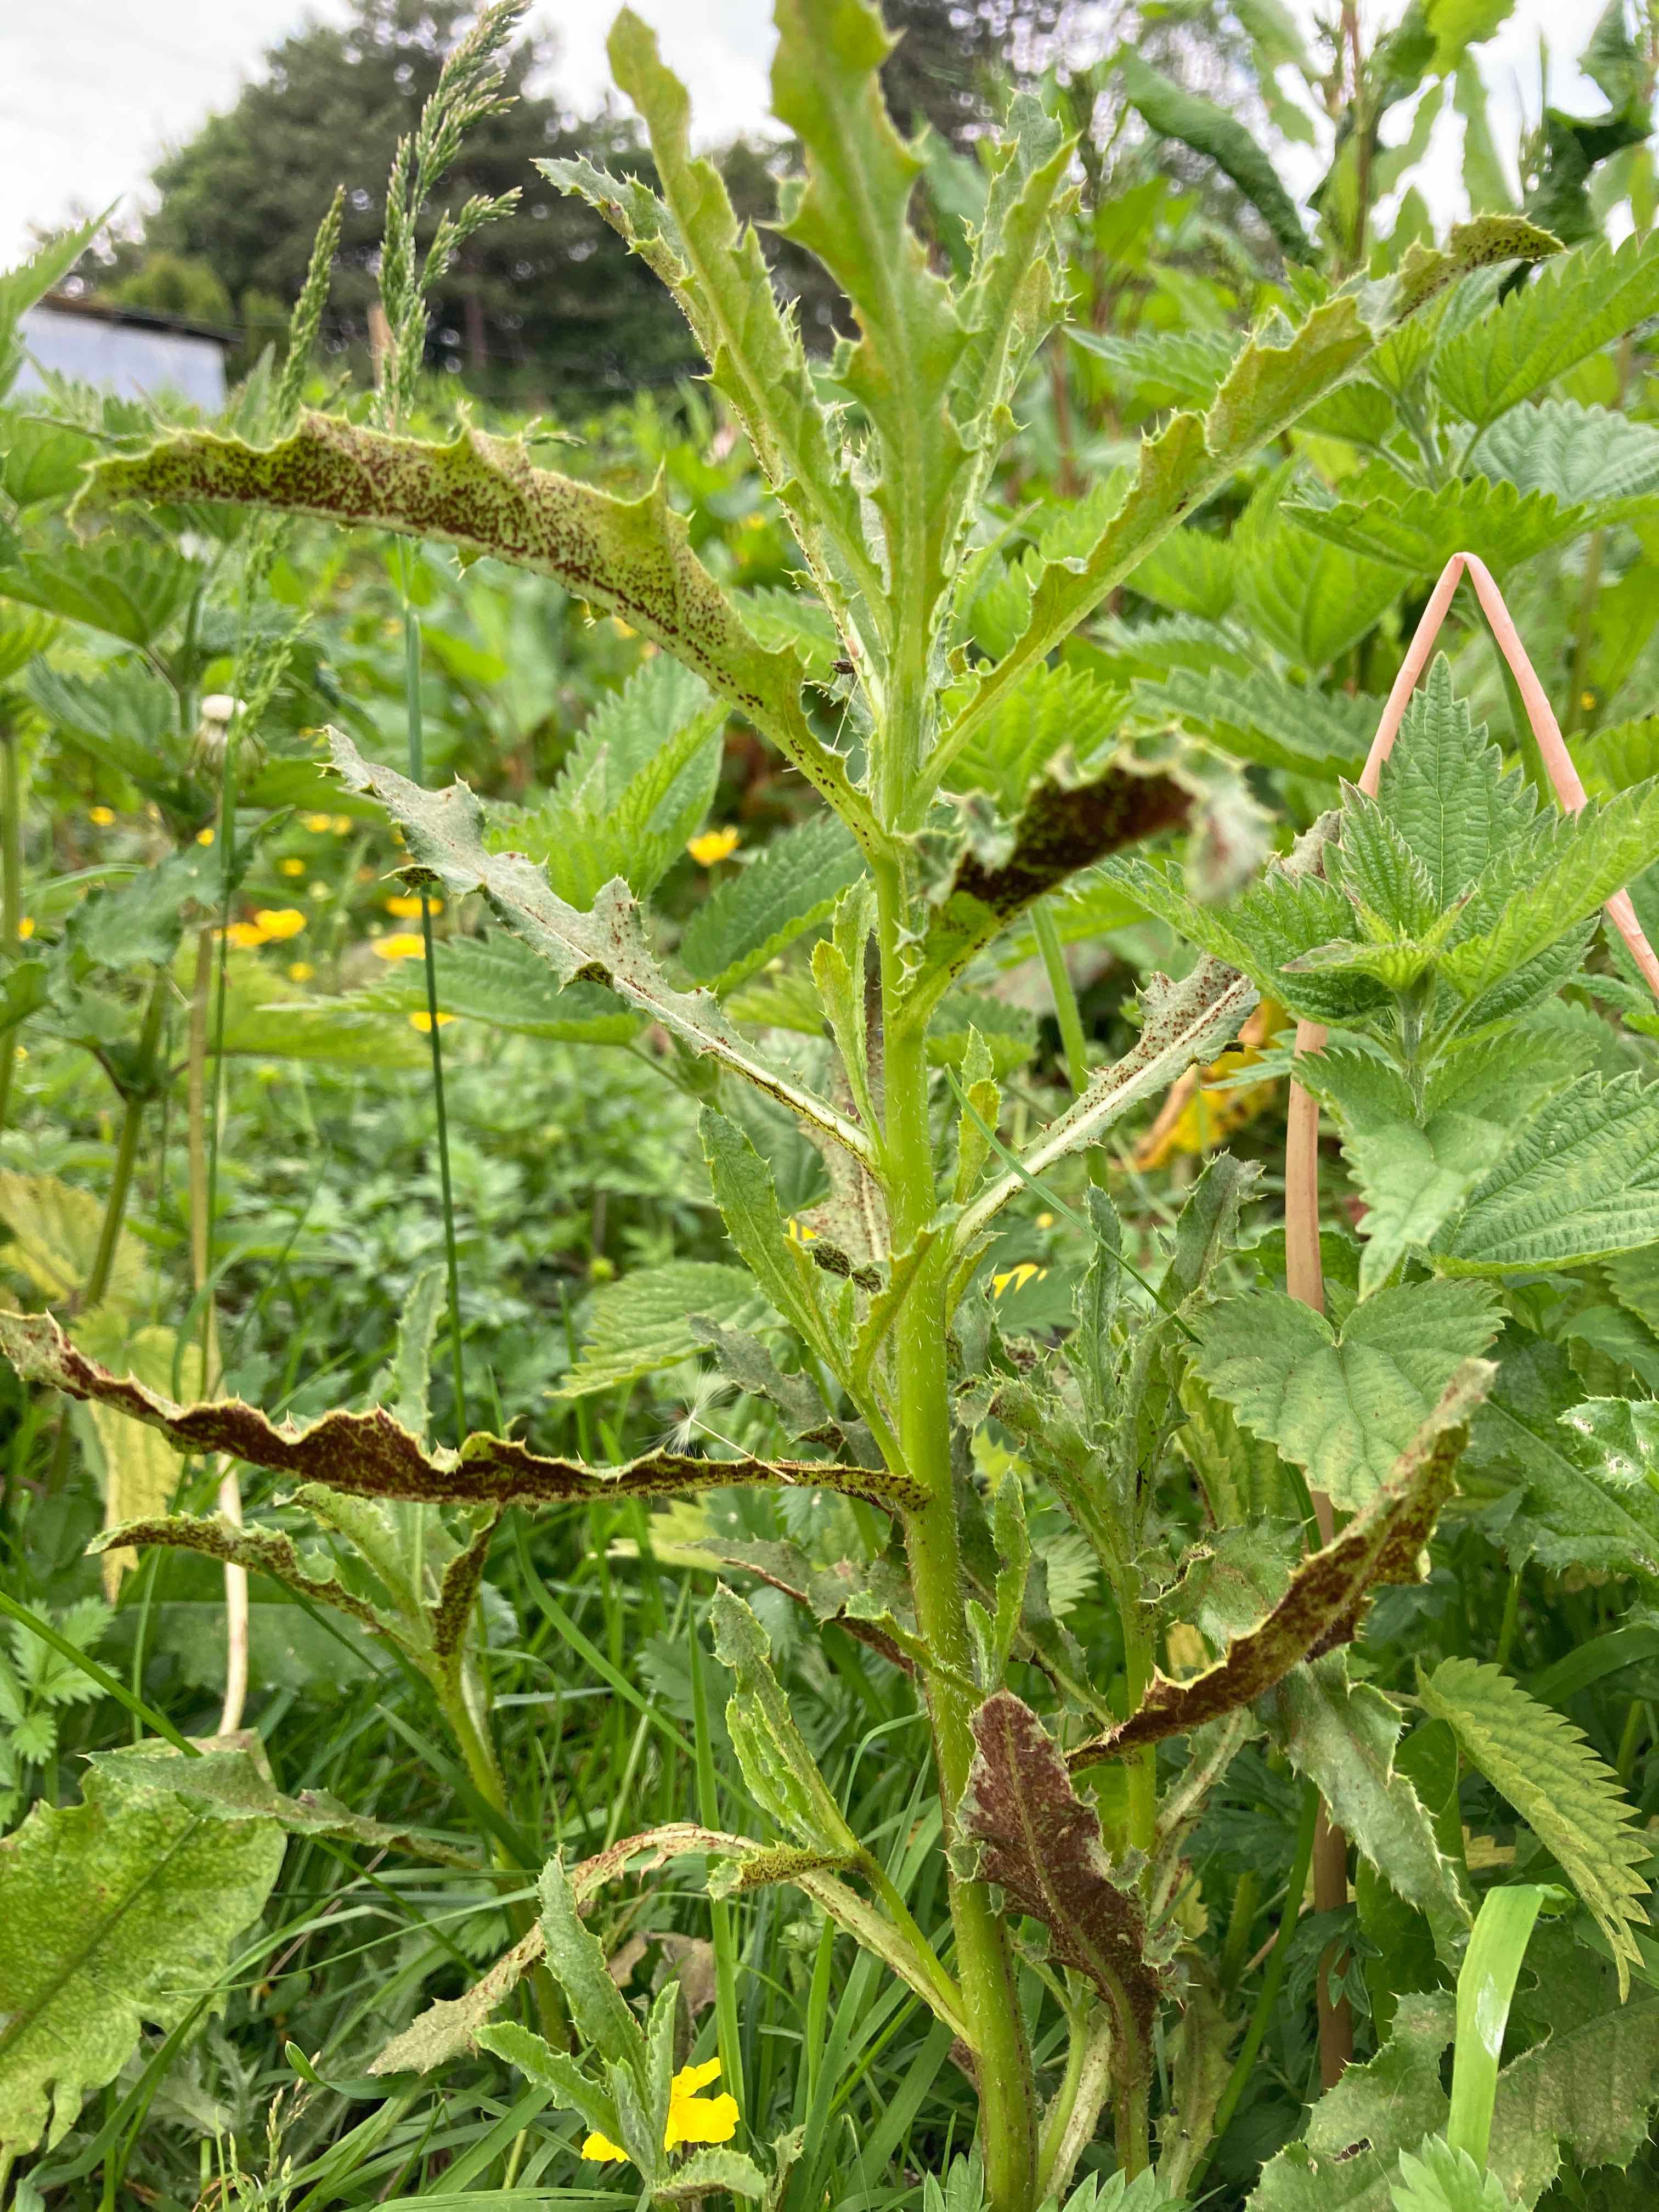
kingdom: Fungi
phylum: Basidiomycota
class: Pucciniomycetes
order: Pucciniales
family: Pucciniaceae
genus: Puccinia
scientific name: Puccinia suaveolens
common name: tidsel-tvecellerust
